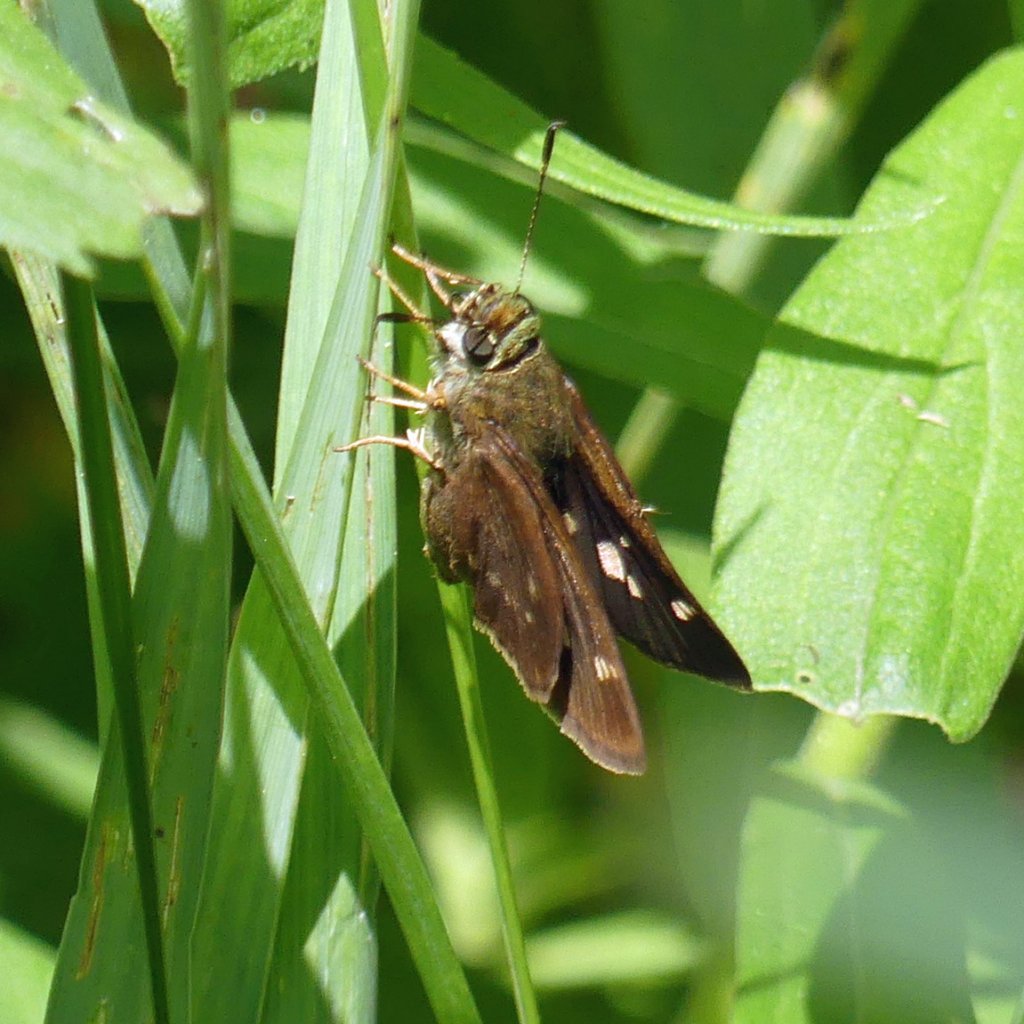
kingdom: Animalia
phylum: Arthropoda
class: Insecta
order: Lepidoptera
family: Hesperiidae
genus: Vernia
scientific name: Vernia verna
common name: Little Glassywing
